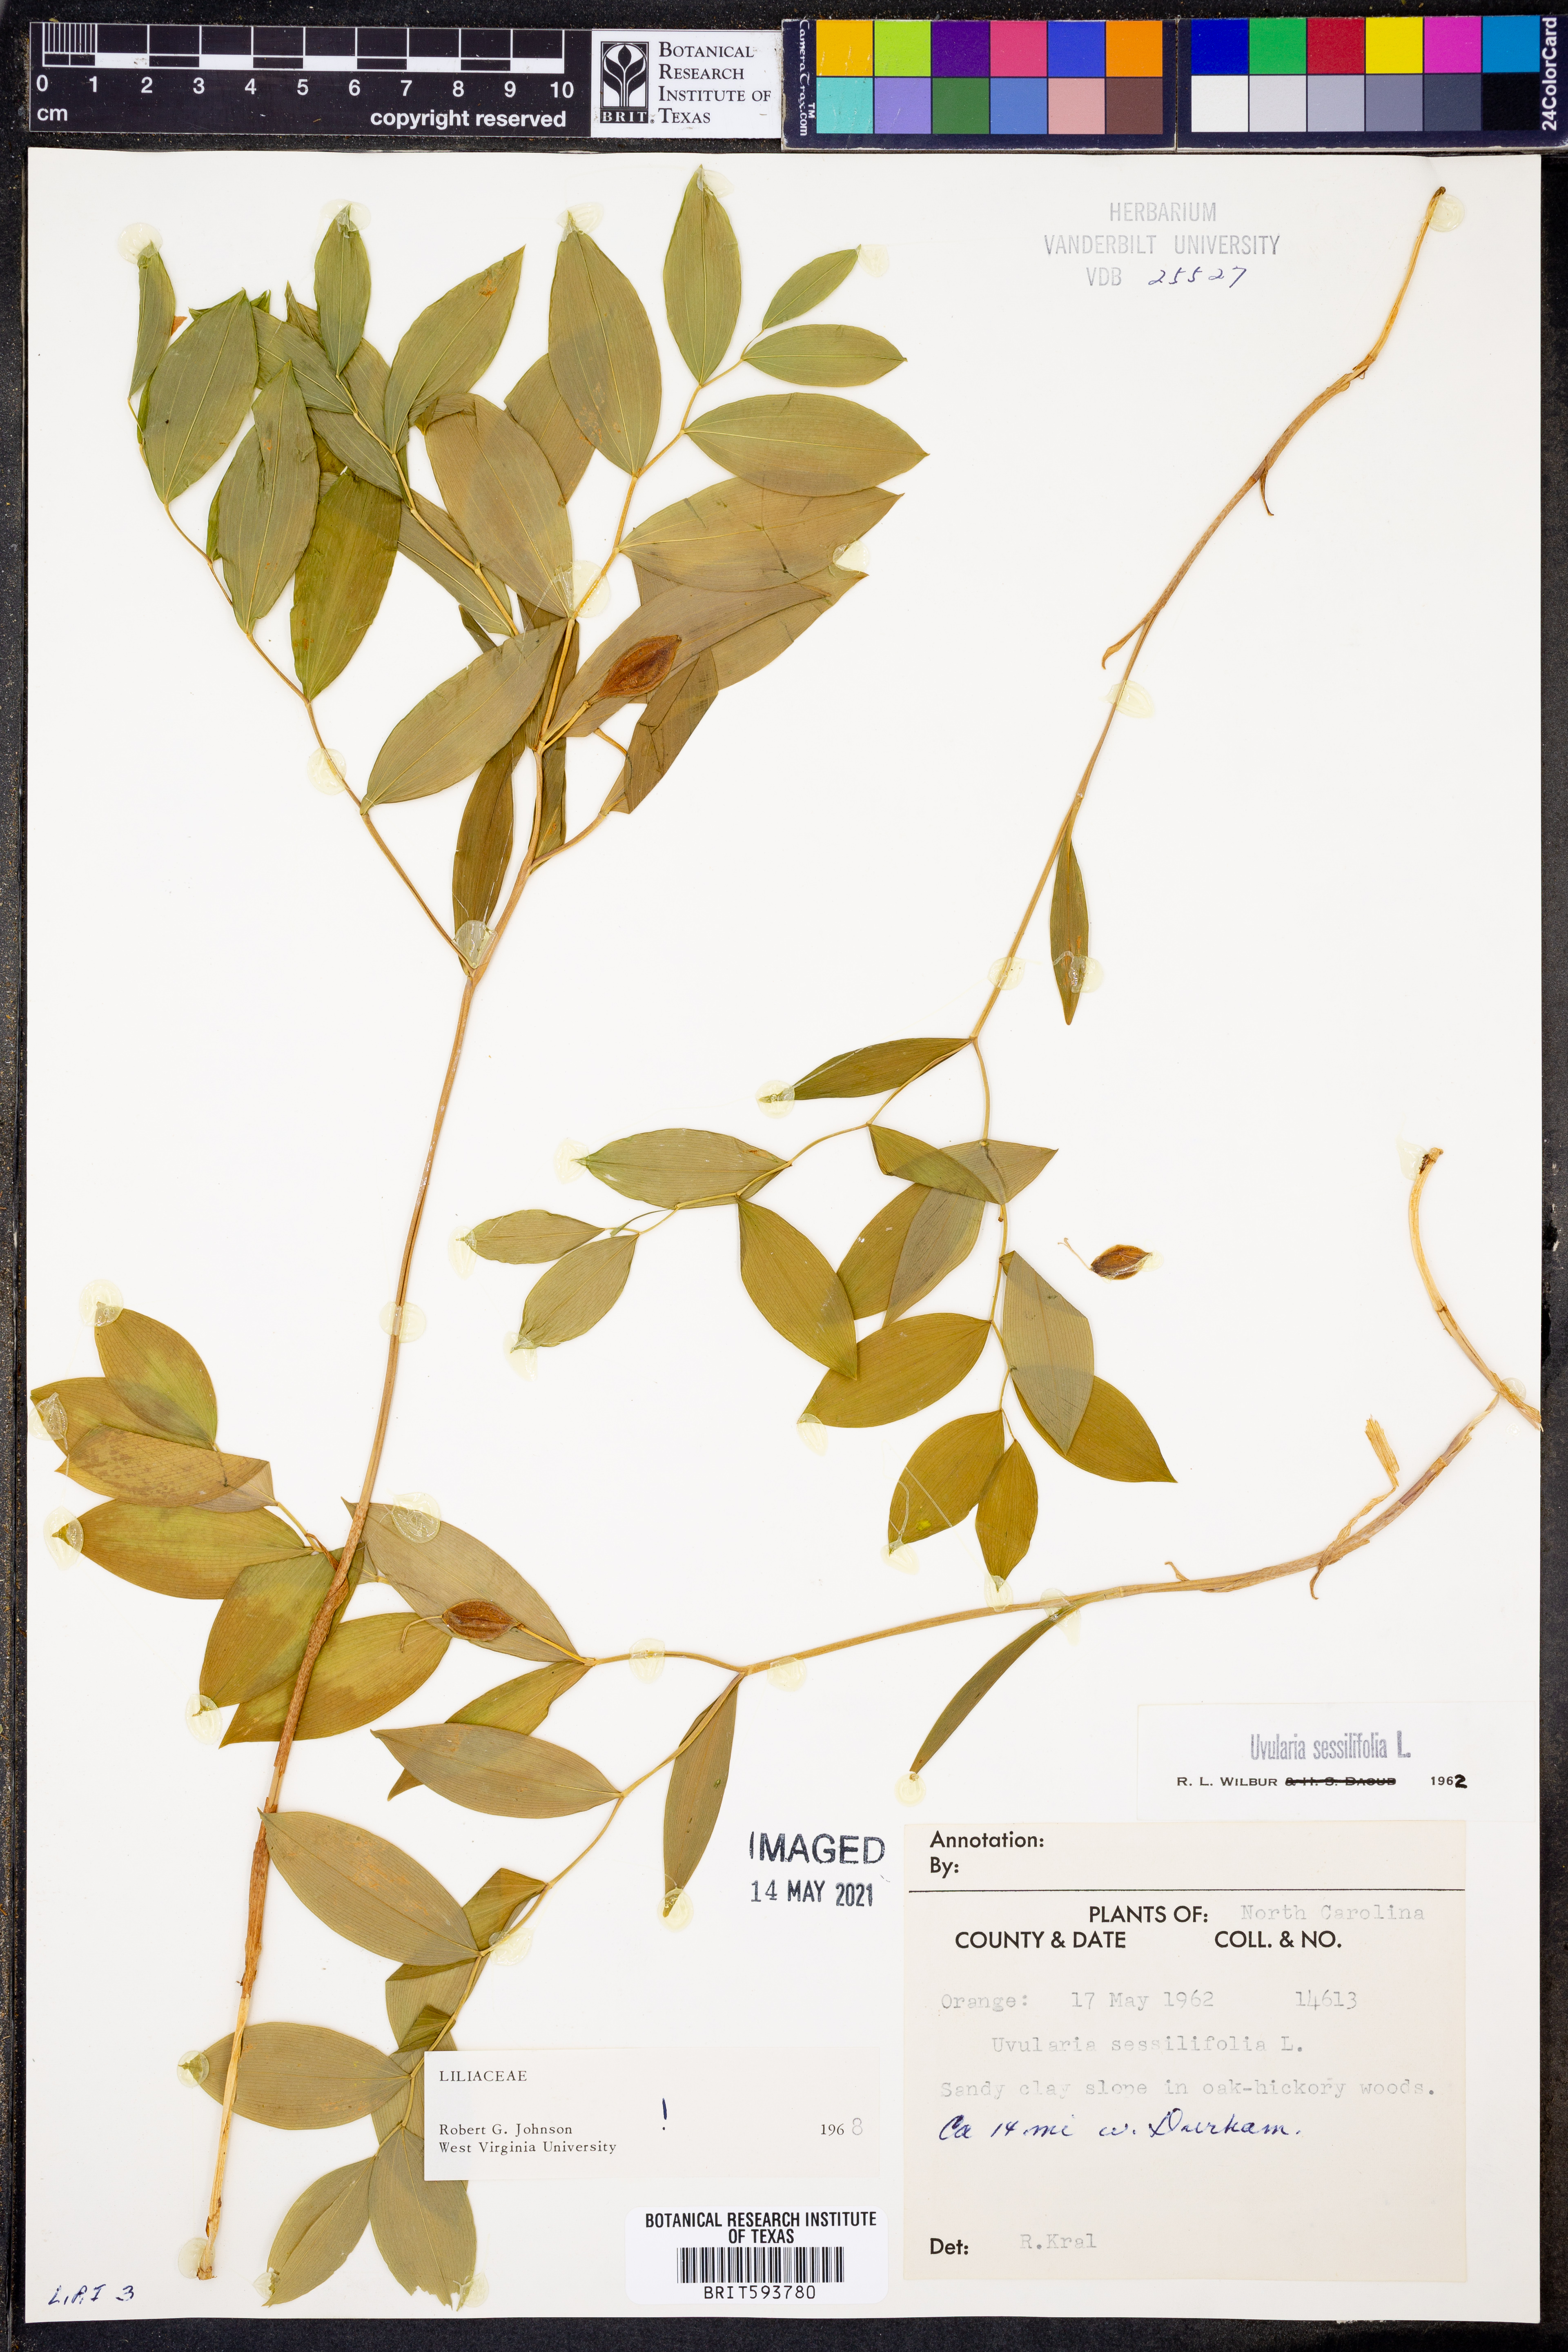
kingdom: Plantae
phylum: Tracheophyta
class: Liliopsida
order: Liliales
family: Colchicaceae
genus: Uvularia
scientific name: Uvularia sessilifolia
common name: Straw-lily
